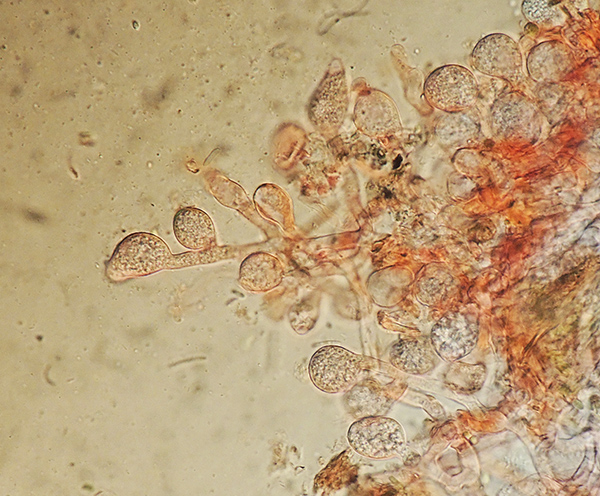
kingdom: Fungi
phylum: Basidiomycota
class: Agaricomycetes
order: Cantharellales
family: Tulasnellaceae
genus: Tulasnella
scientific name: Tulasnella deliquescens
